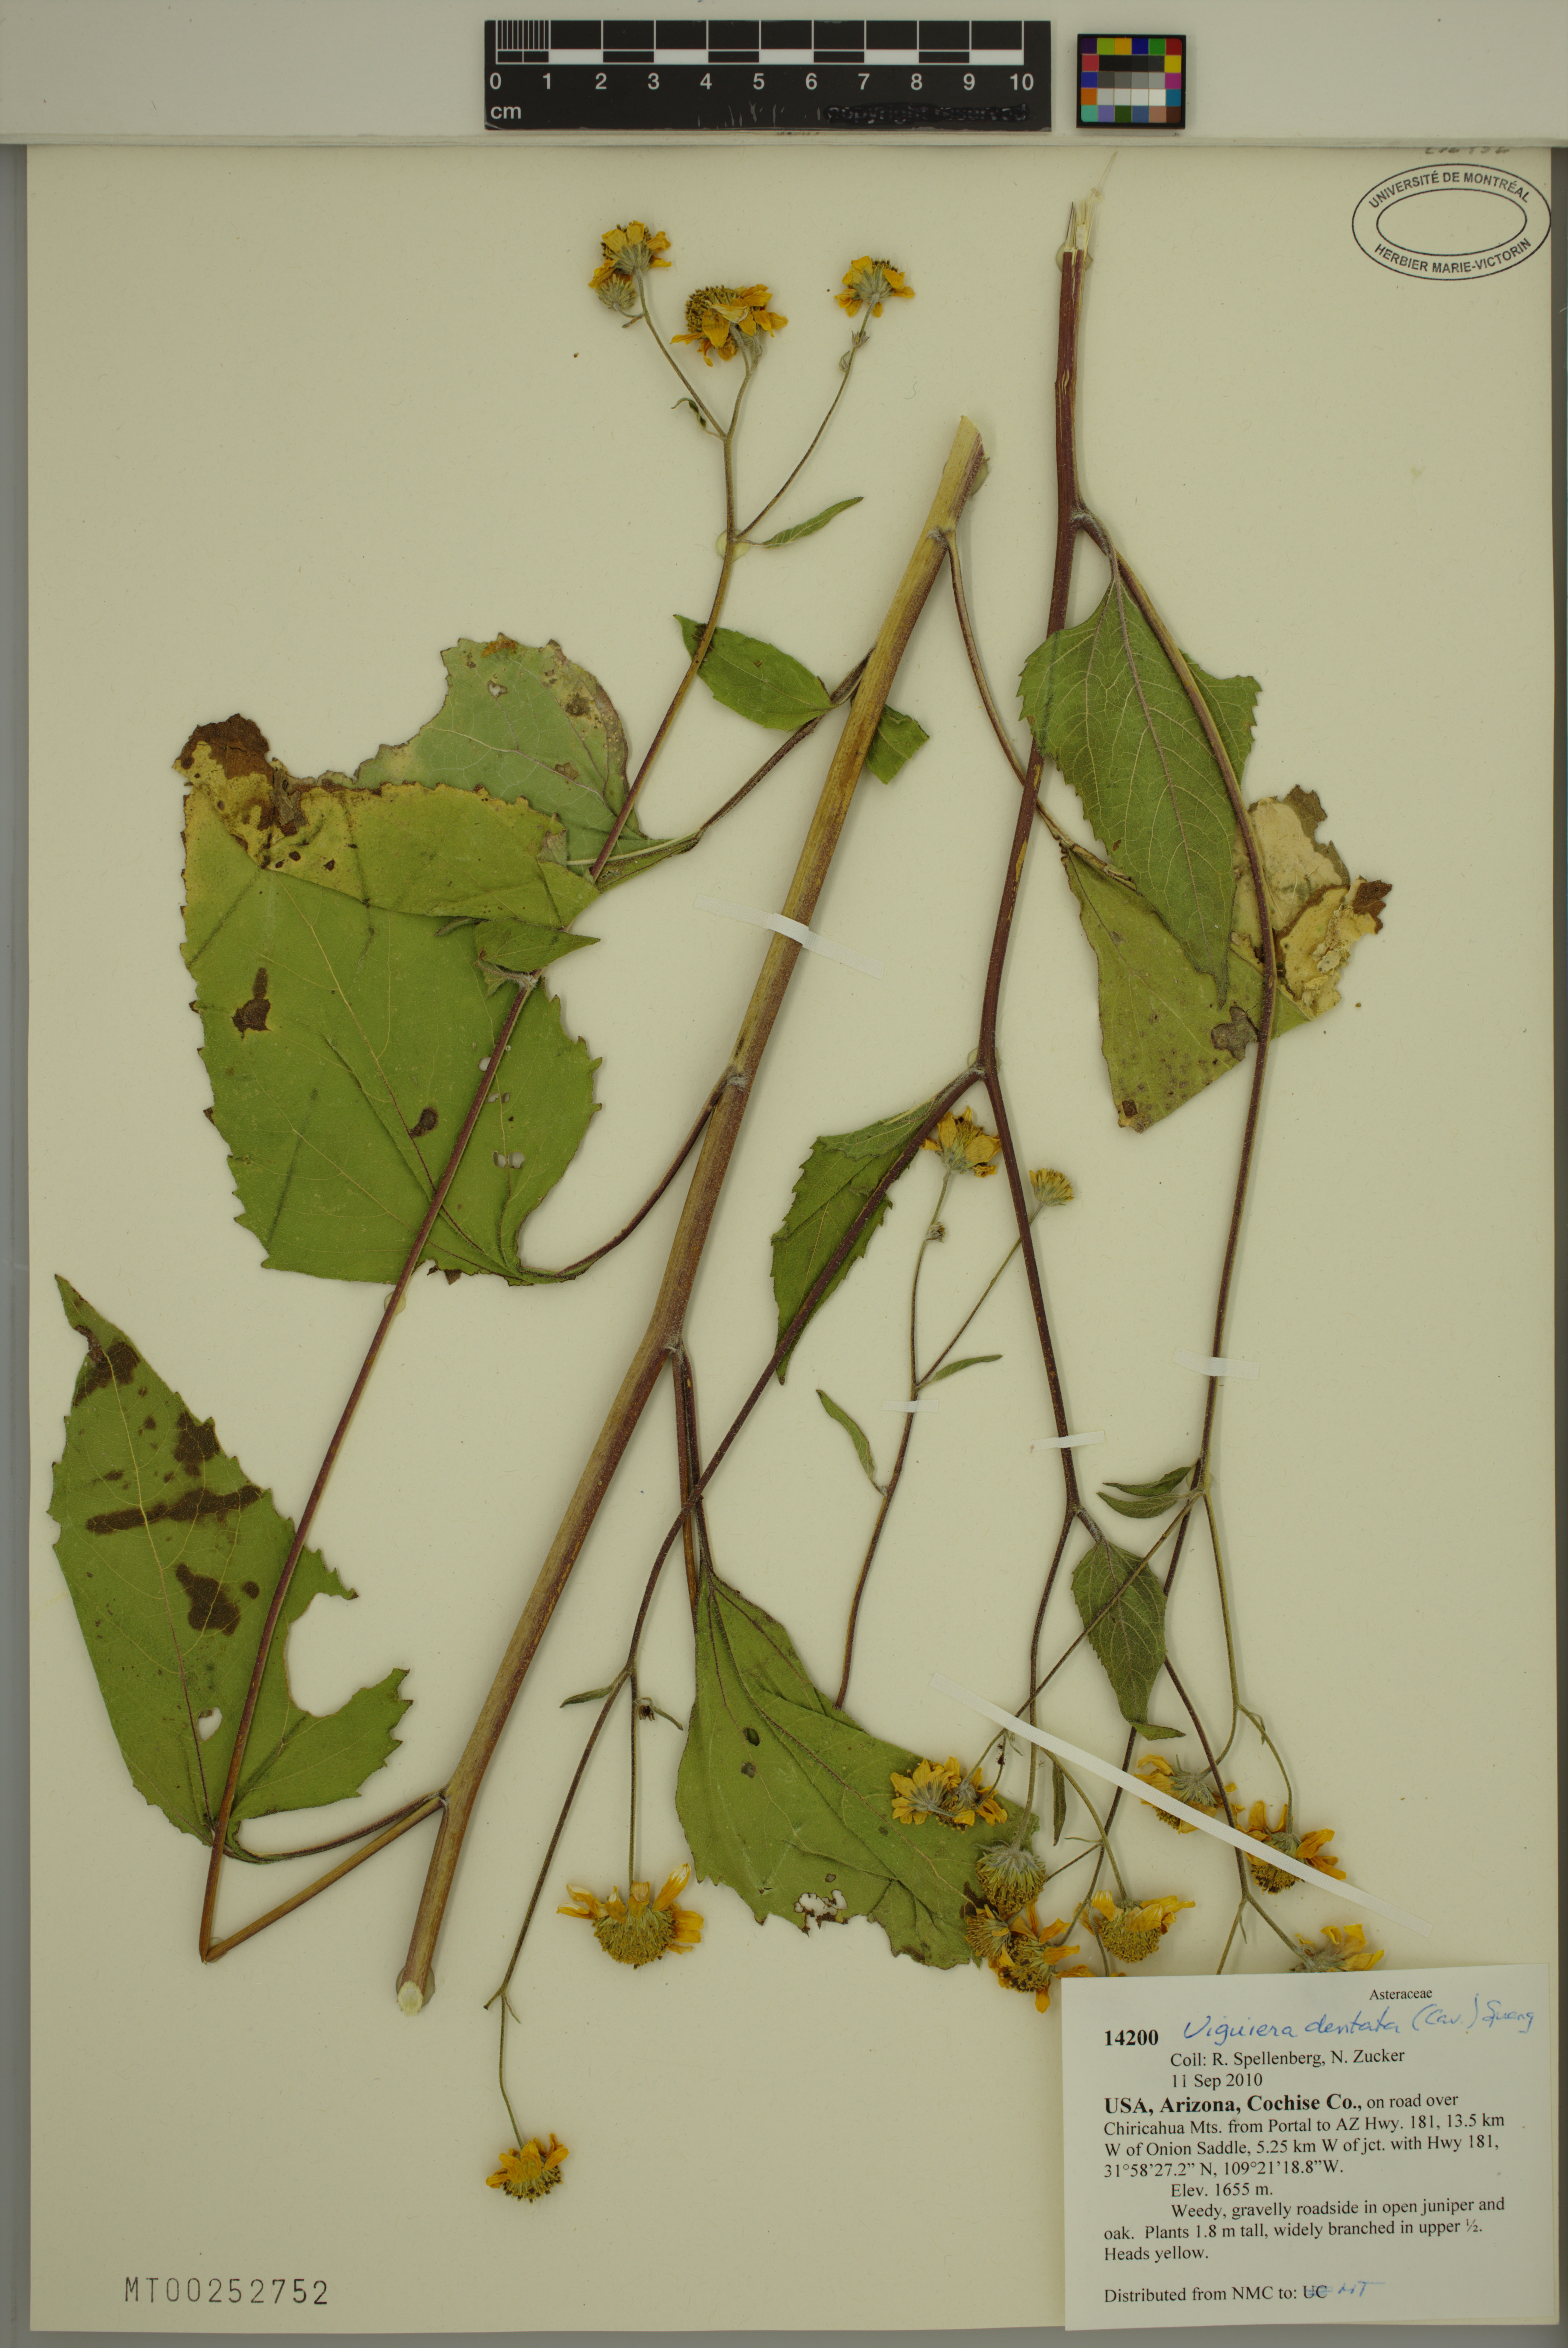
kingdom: Plantae
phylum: Tracheophyta
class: Magnoliopsida
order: Asterales
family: Asteraceae
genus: Viguiera
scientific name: Viguiera dentata
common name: Toothleaf
